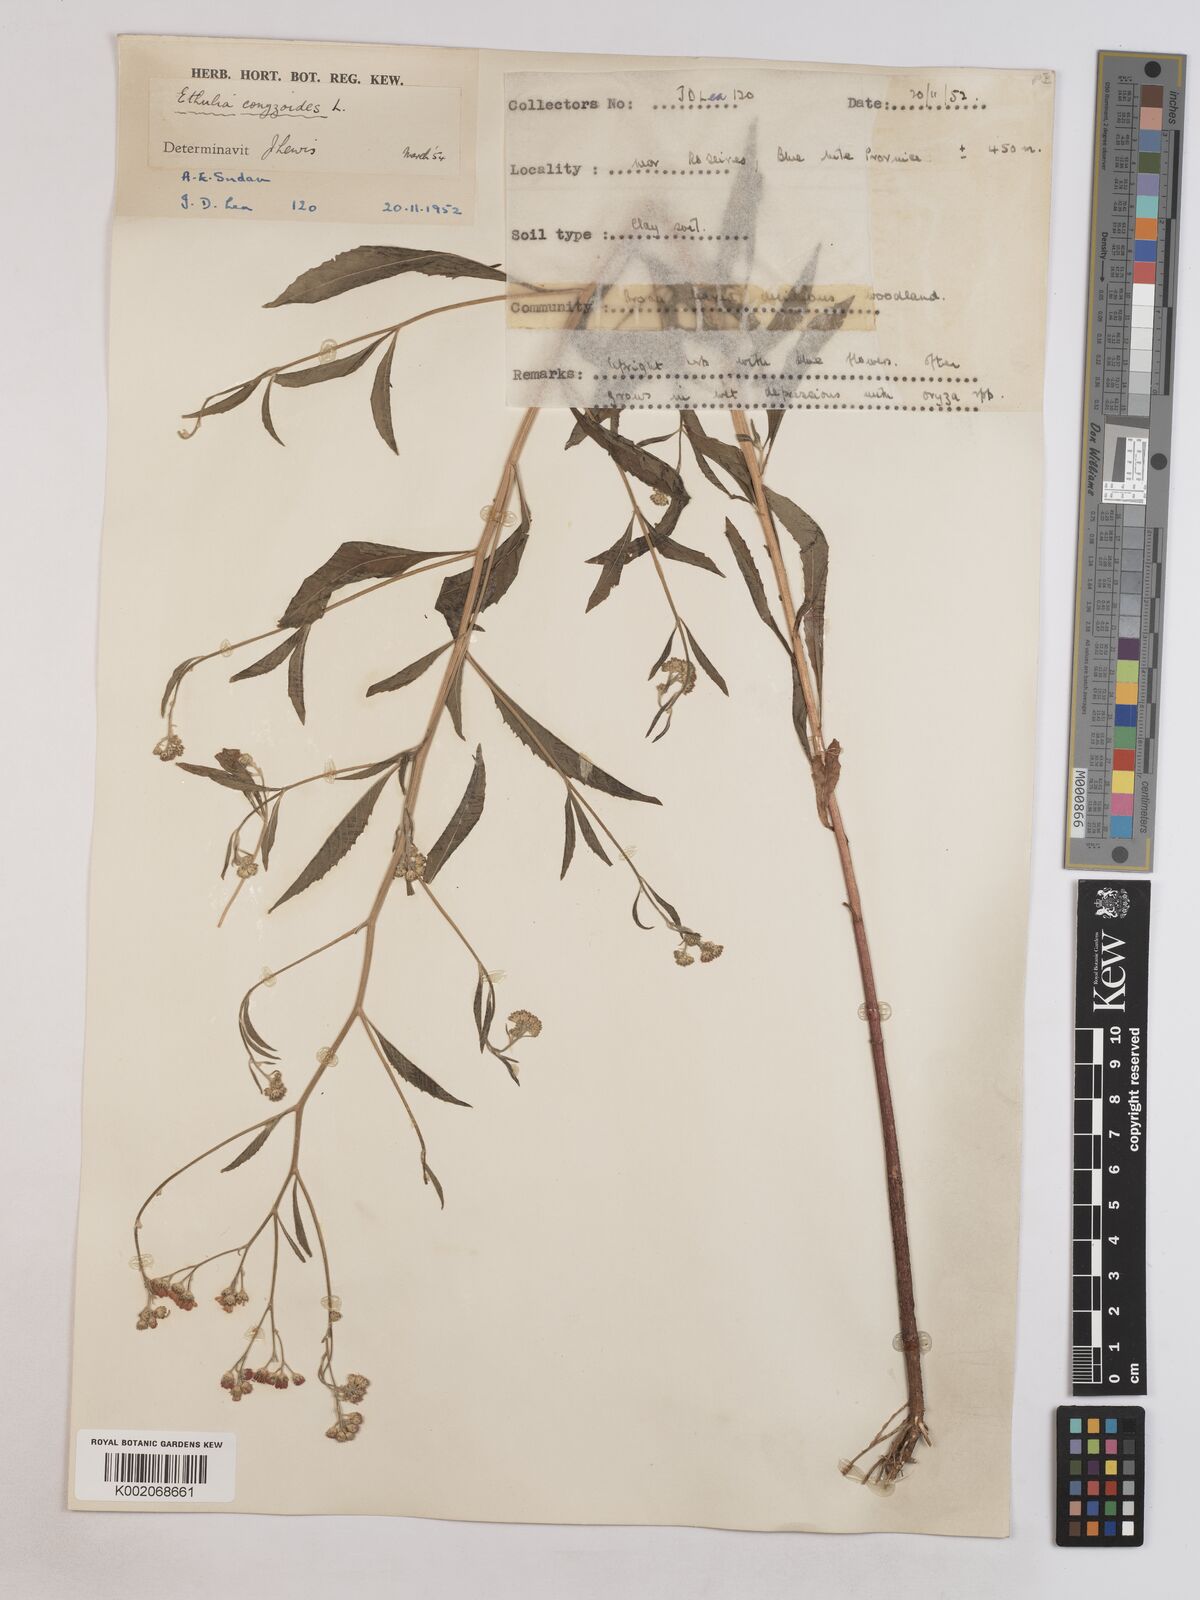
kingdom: Plantae
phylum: Tracheophyta
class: Magnoliopsida
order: Asterales
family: Asteraceae
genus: Ethulia
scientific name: Ethulia gracilis
